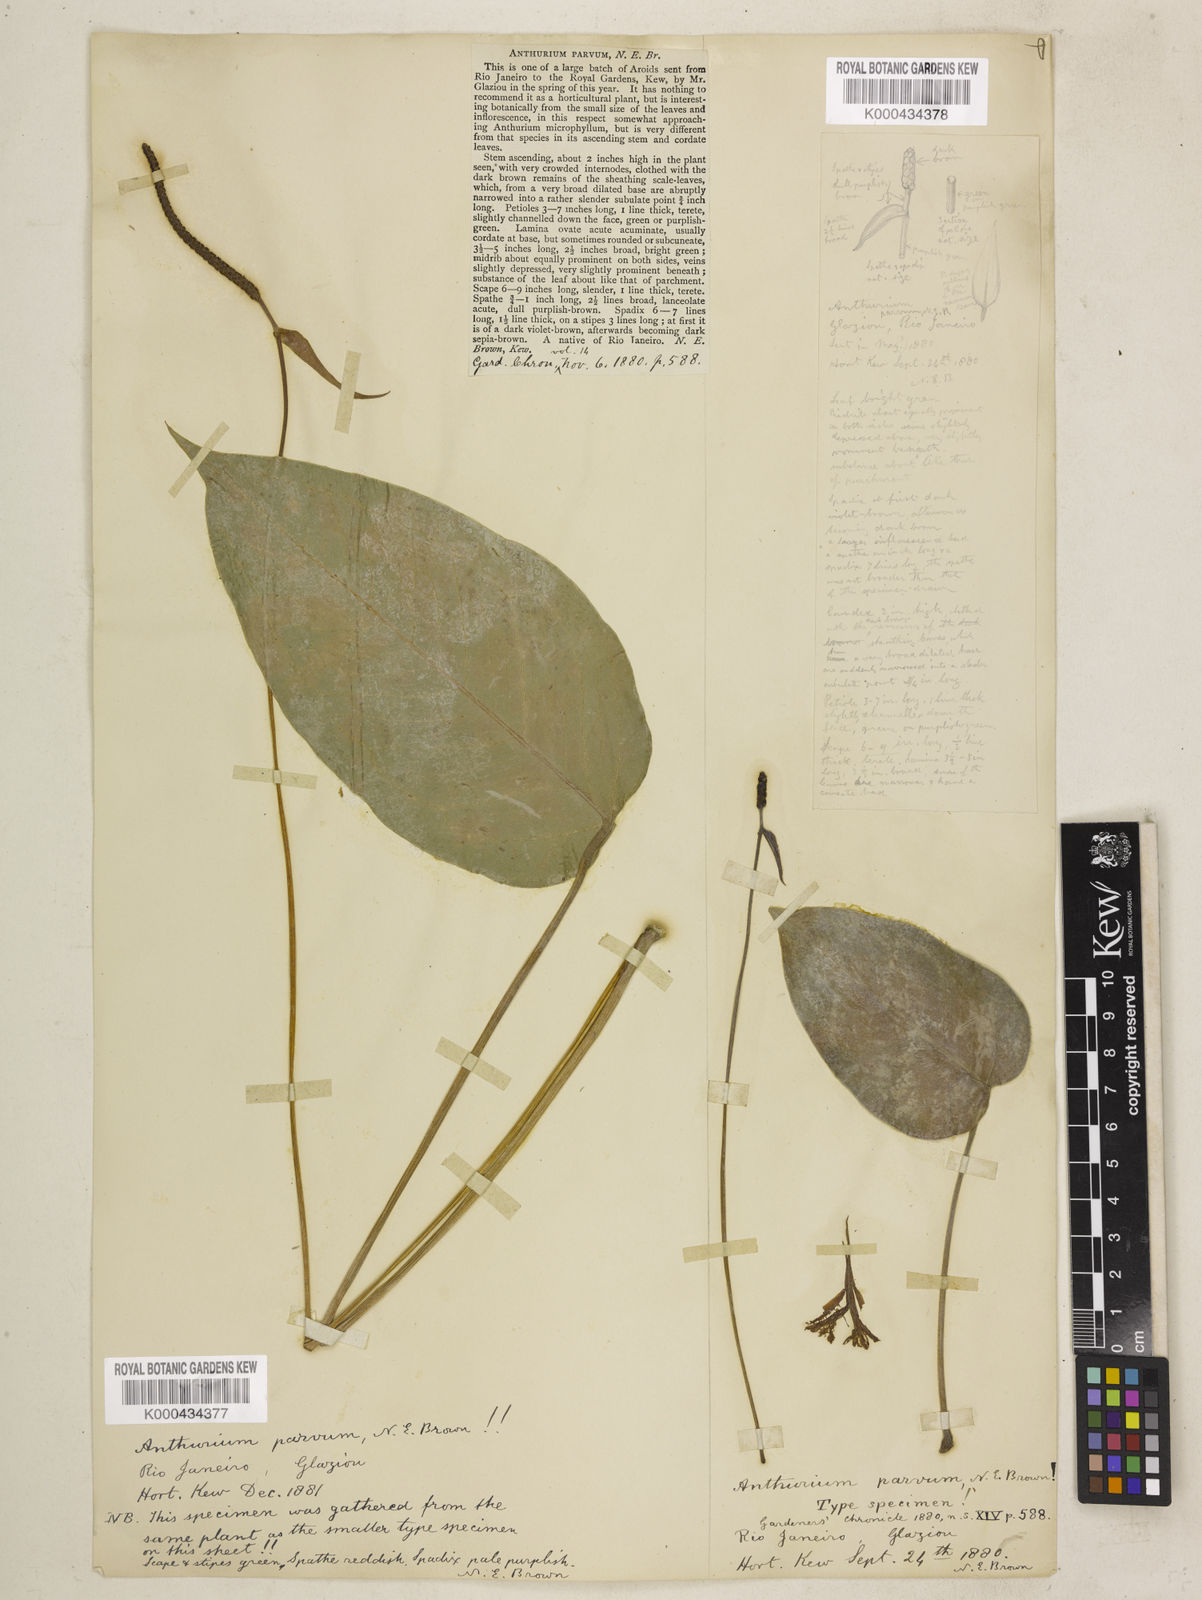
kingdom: Plantae
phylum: Tracheophyta
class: Liliopsida
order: Alismatales
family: Araceae
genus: Anthurium
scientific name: Anthurium augustinum
